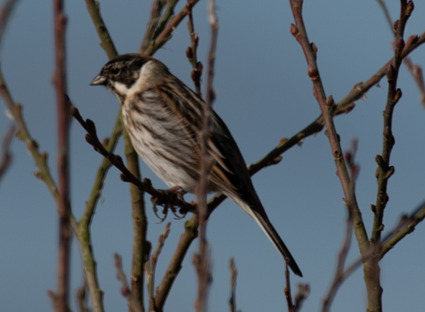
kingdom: Animalia
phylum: Chordata
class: Aves
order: Passeriformes
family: Emberizidae
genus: Emberiza
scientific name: Emberiza schoeniclus
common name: Rørspurv
